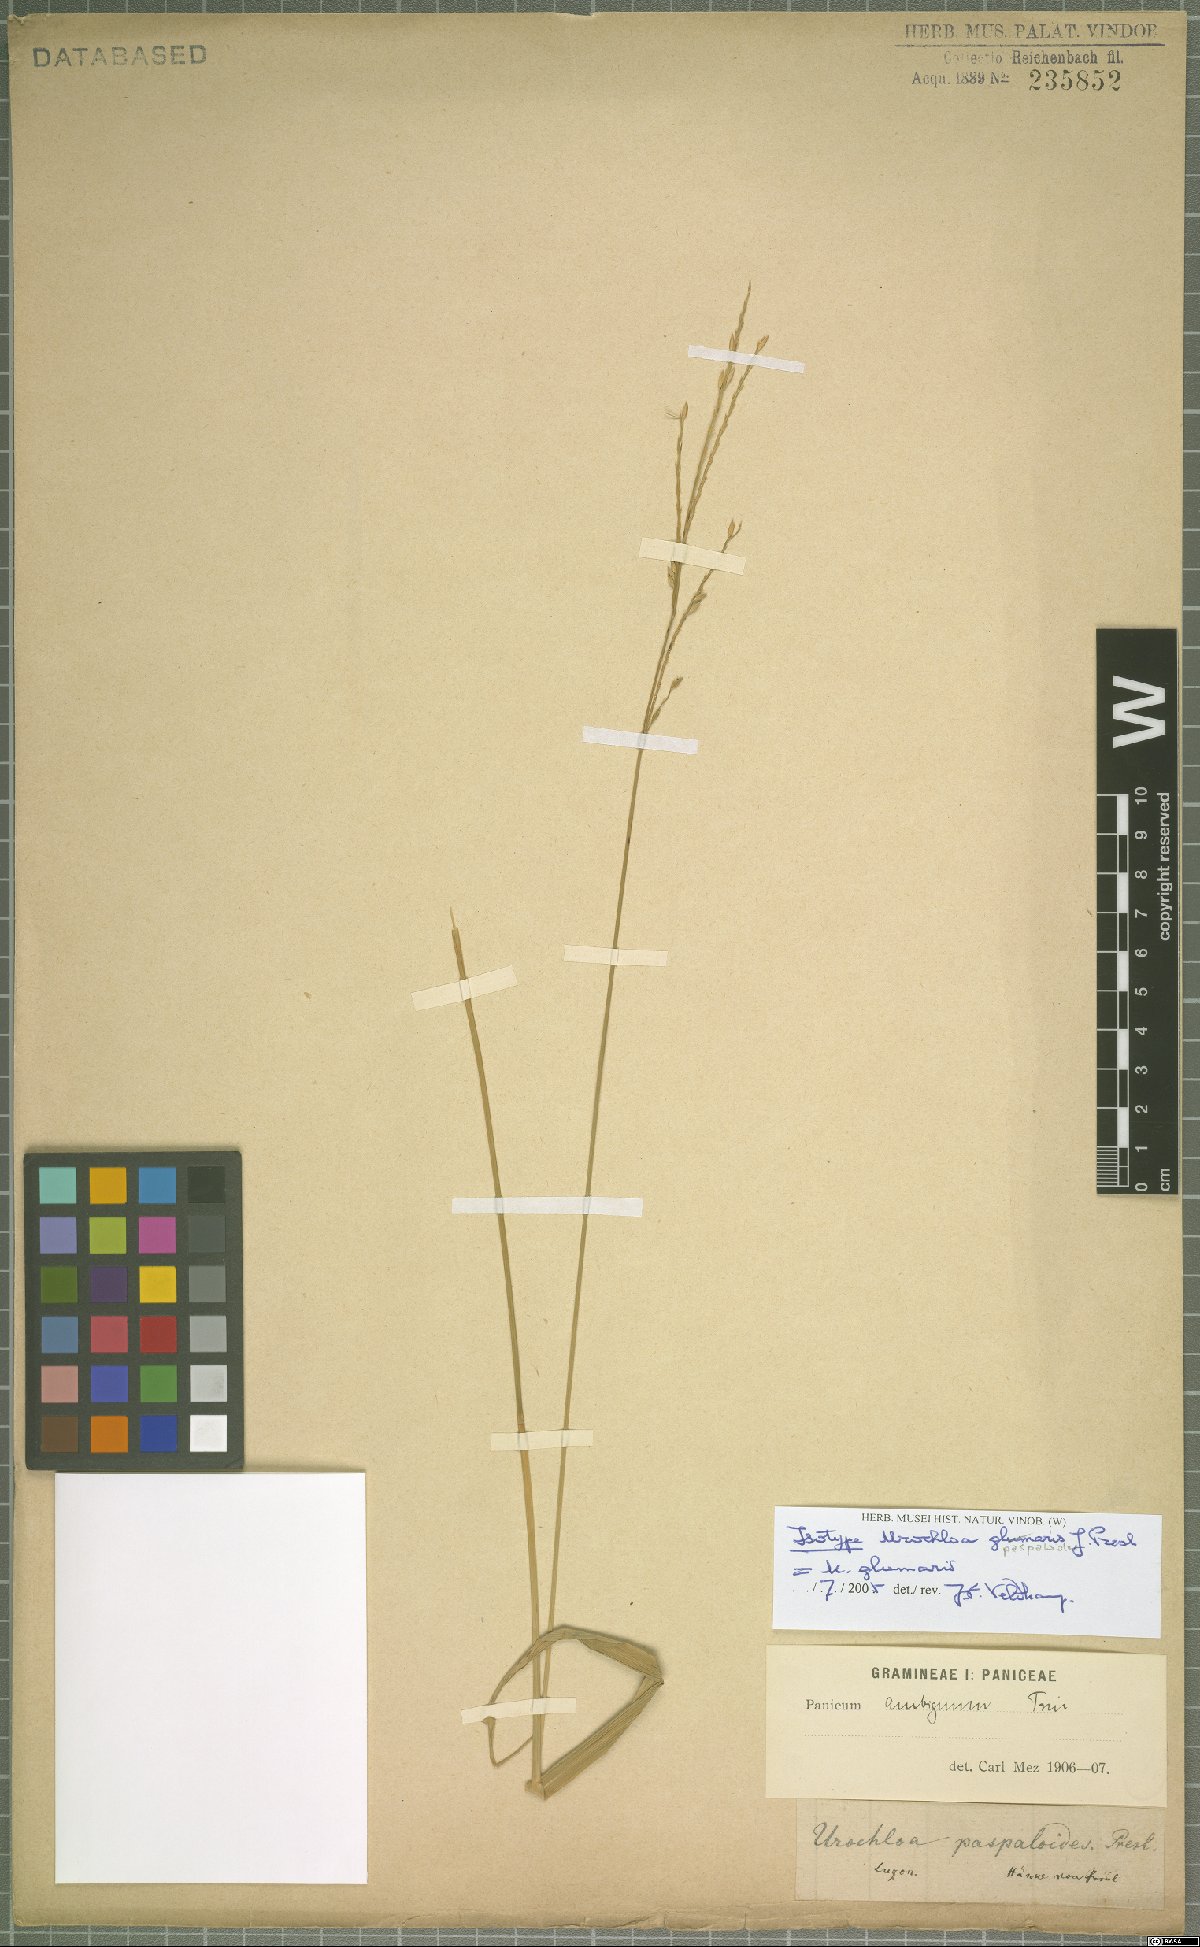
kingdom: Plantae
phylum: Tracheophyta
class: Liliopsida
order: Poales
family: Poaceae
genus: Urochloa
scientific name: Urochloa glumaris
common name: Thurston grass
